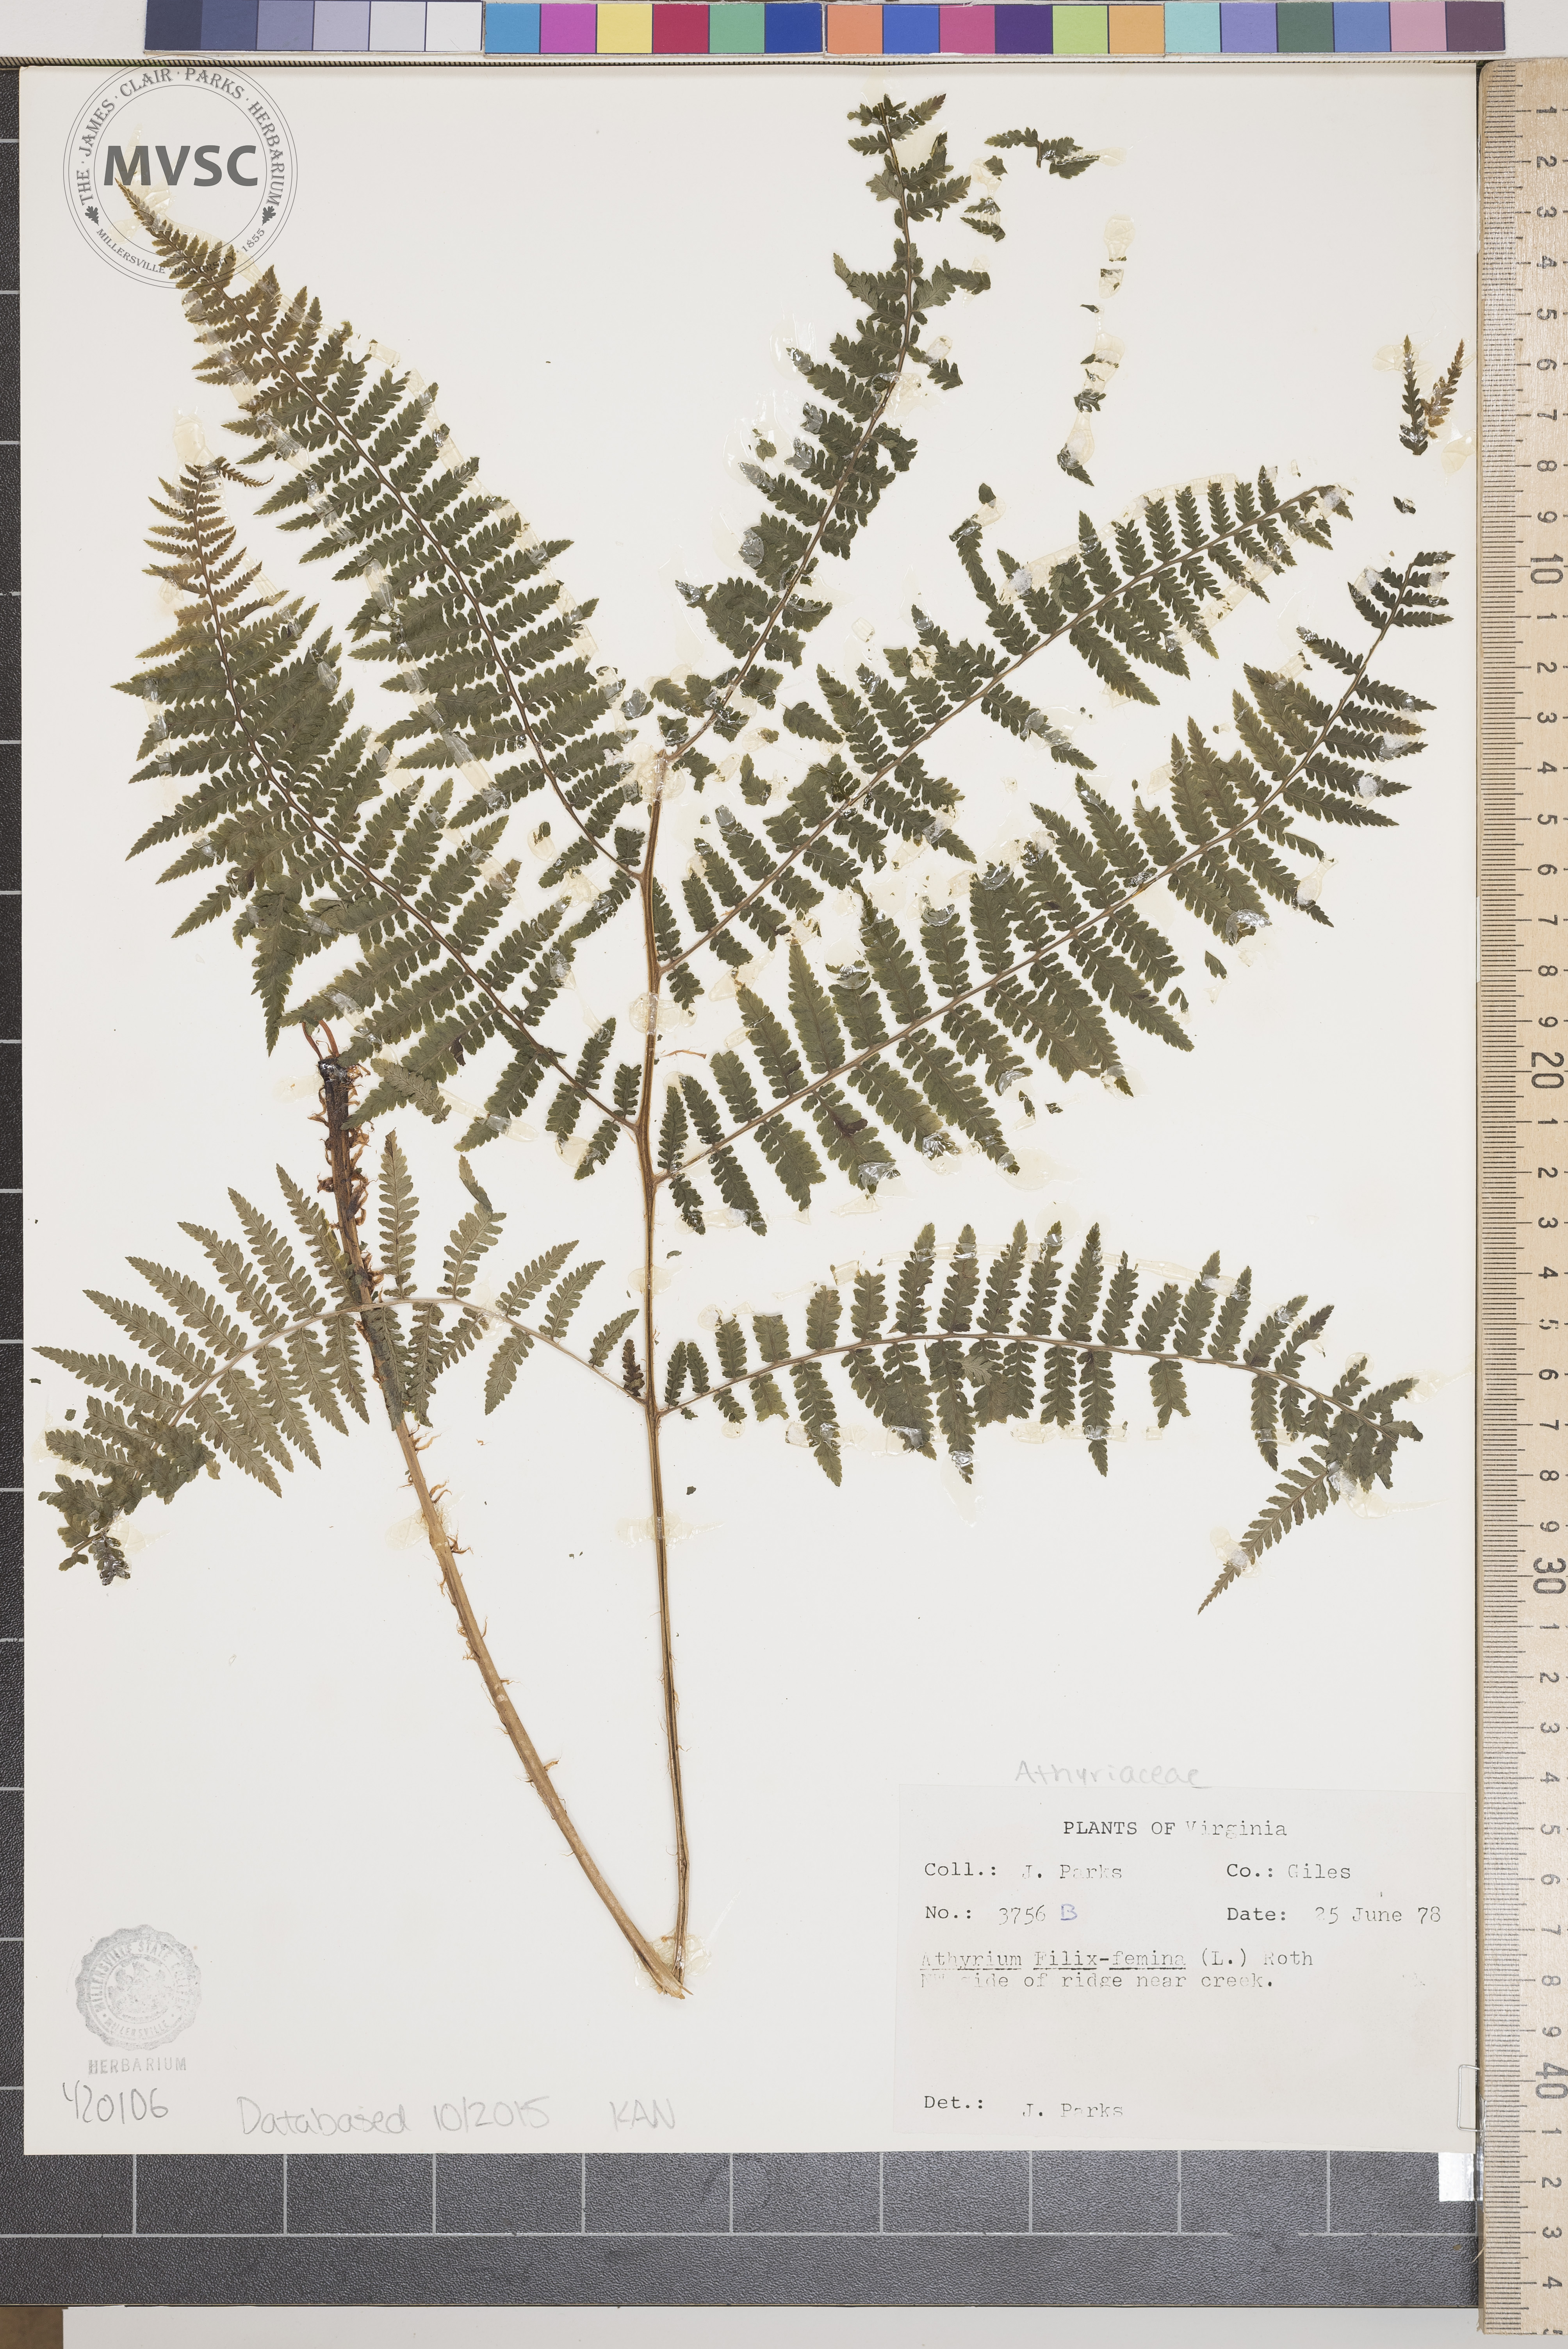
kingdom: Plantae
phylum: Tracheophyta
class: Polypodiopsida
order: Polypodiales
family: Athyriaceae
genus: Athyrium
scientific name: Athyrium filix-femina
